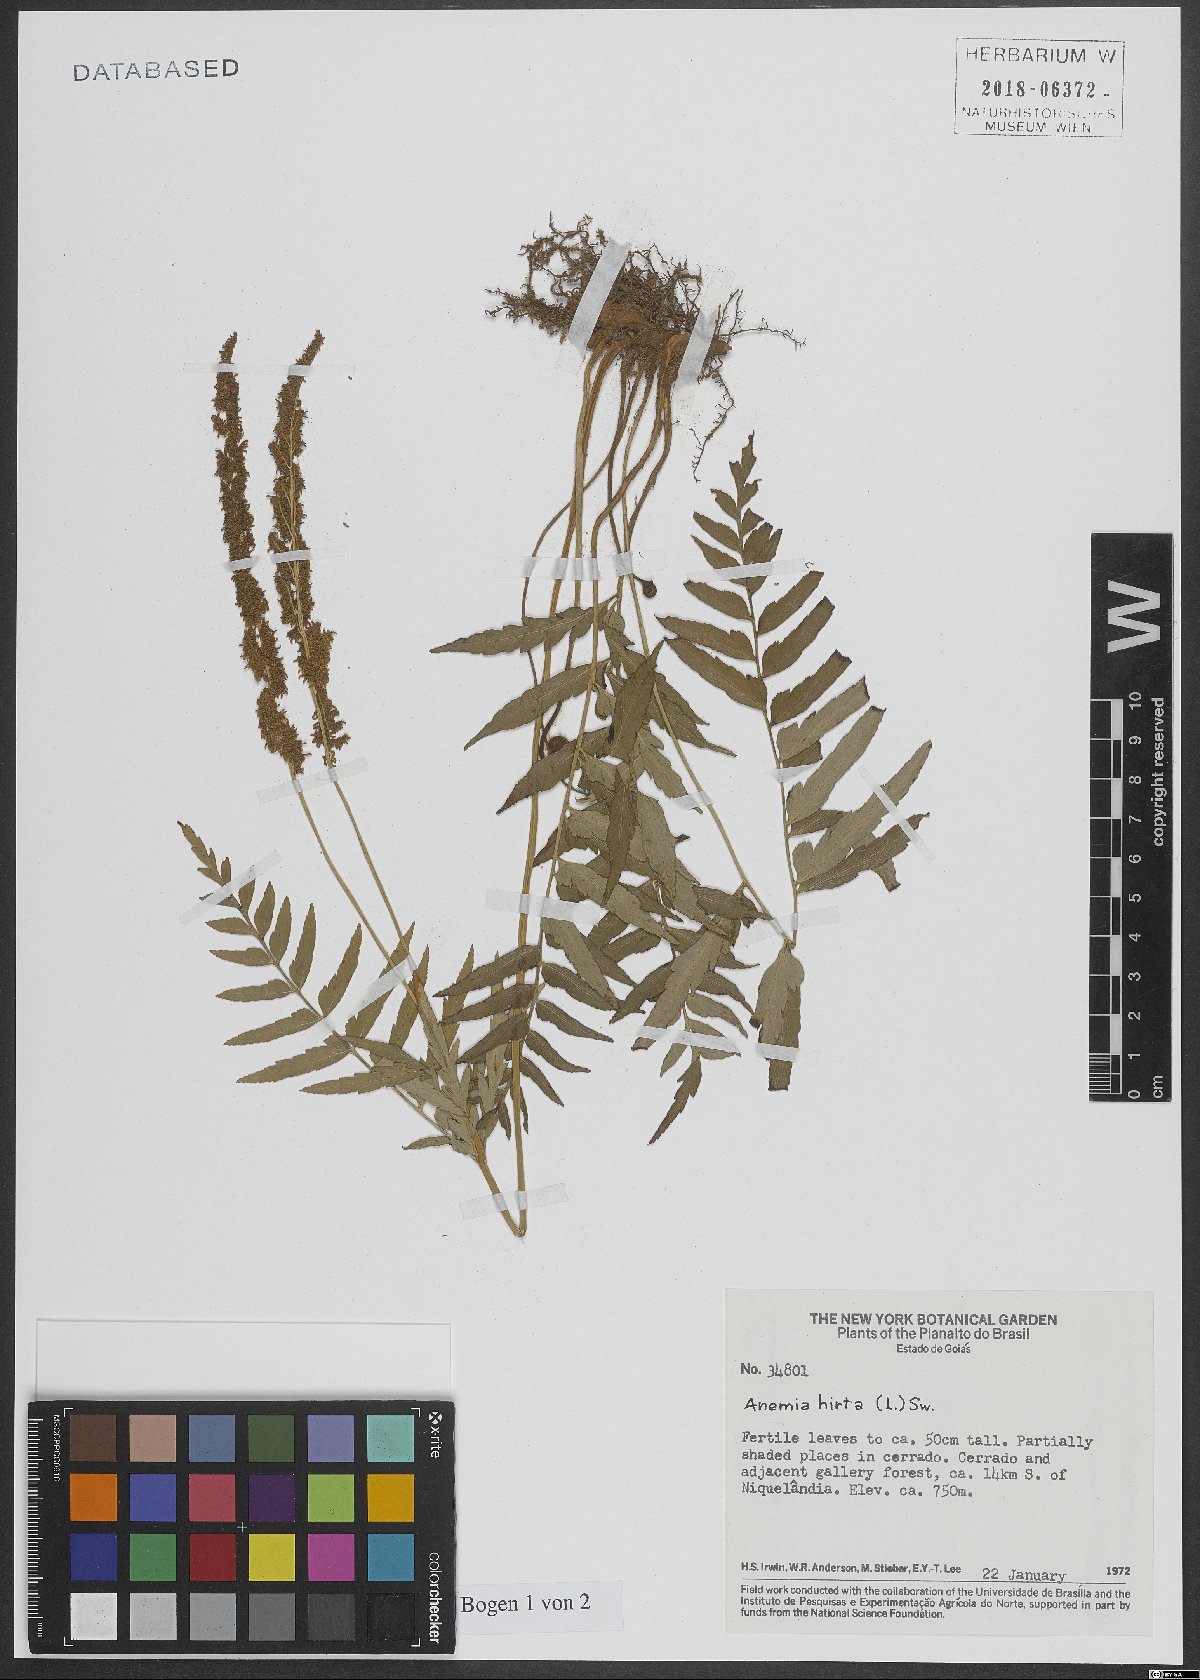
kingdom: Plantae
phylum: Tracheophyta
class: Polypodiopsida
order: Schizaeales
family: Anemiaceae
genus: Anemia
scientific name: Anemia hirta
